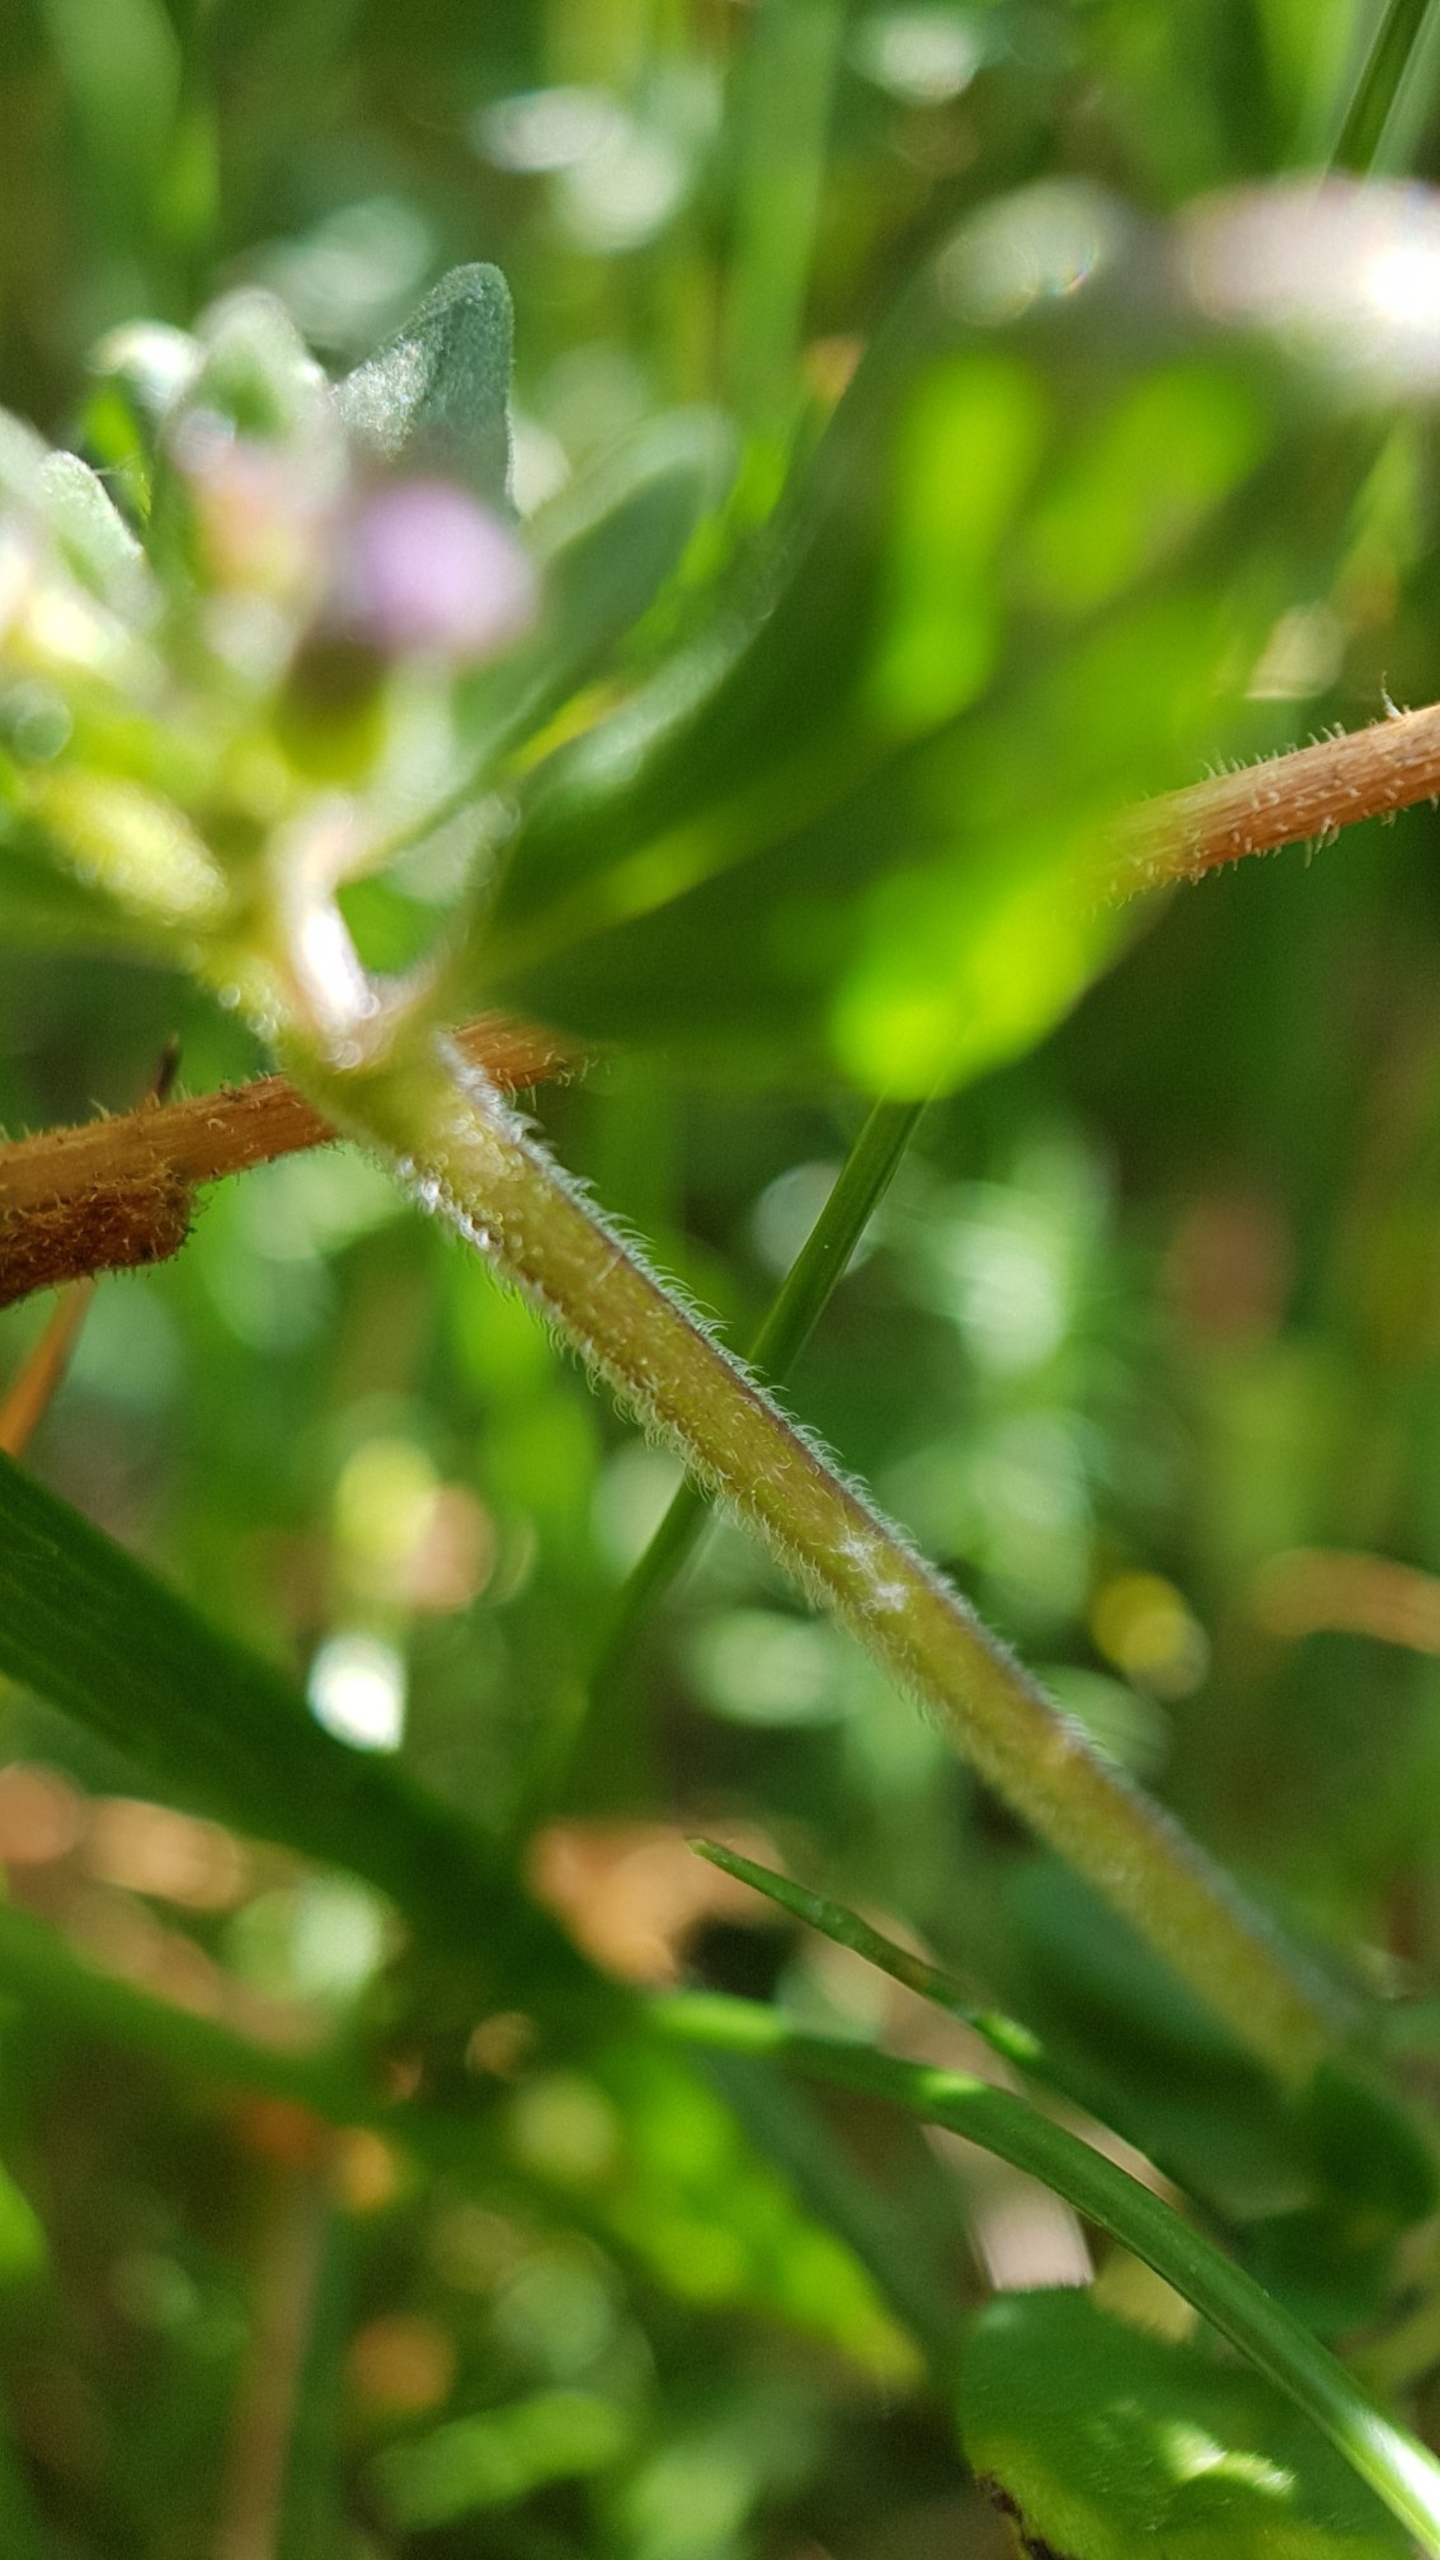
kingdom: Plantae
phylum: Tracheophyta
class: Magnoliopsida
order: Lamiales
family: Lamiaceae
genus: Clinopodium
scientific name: Clinopodium acinos
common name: Voldtimian
